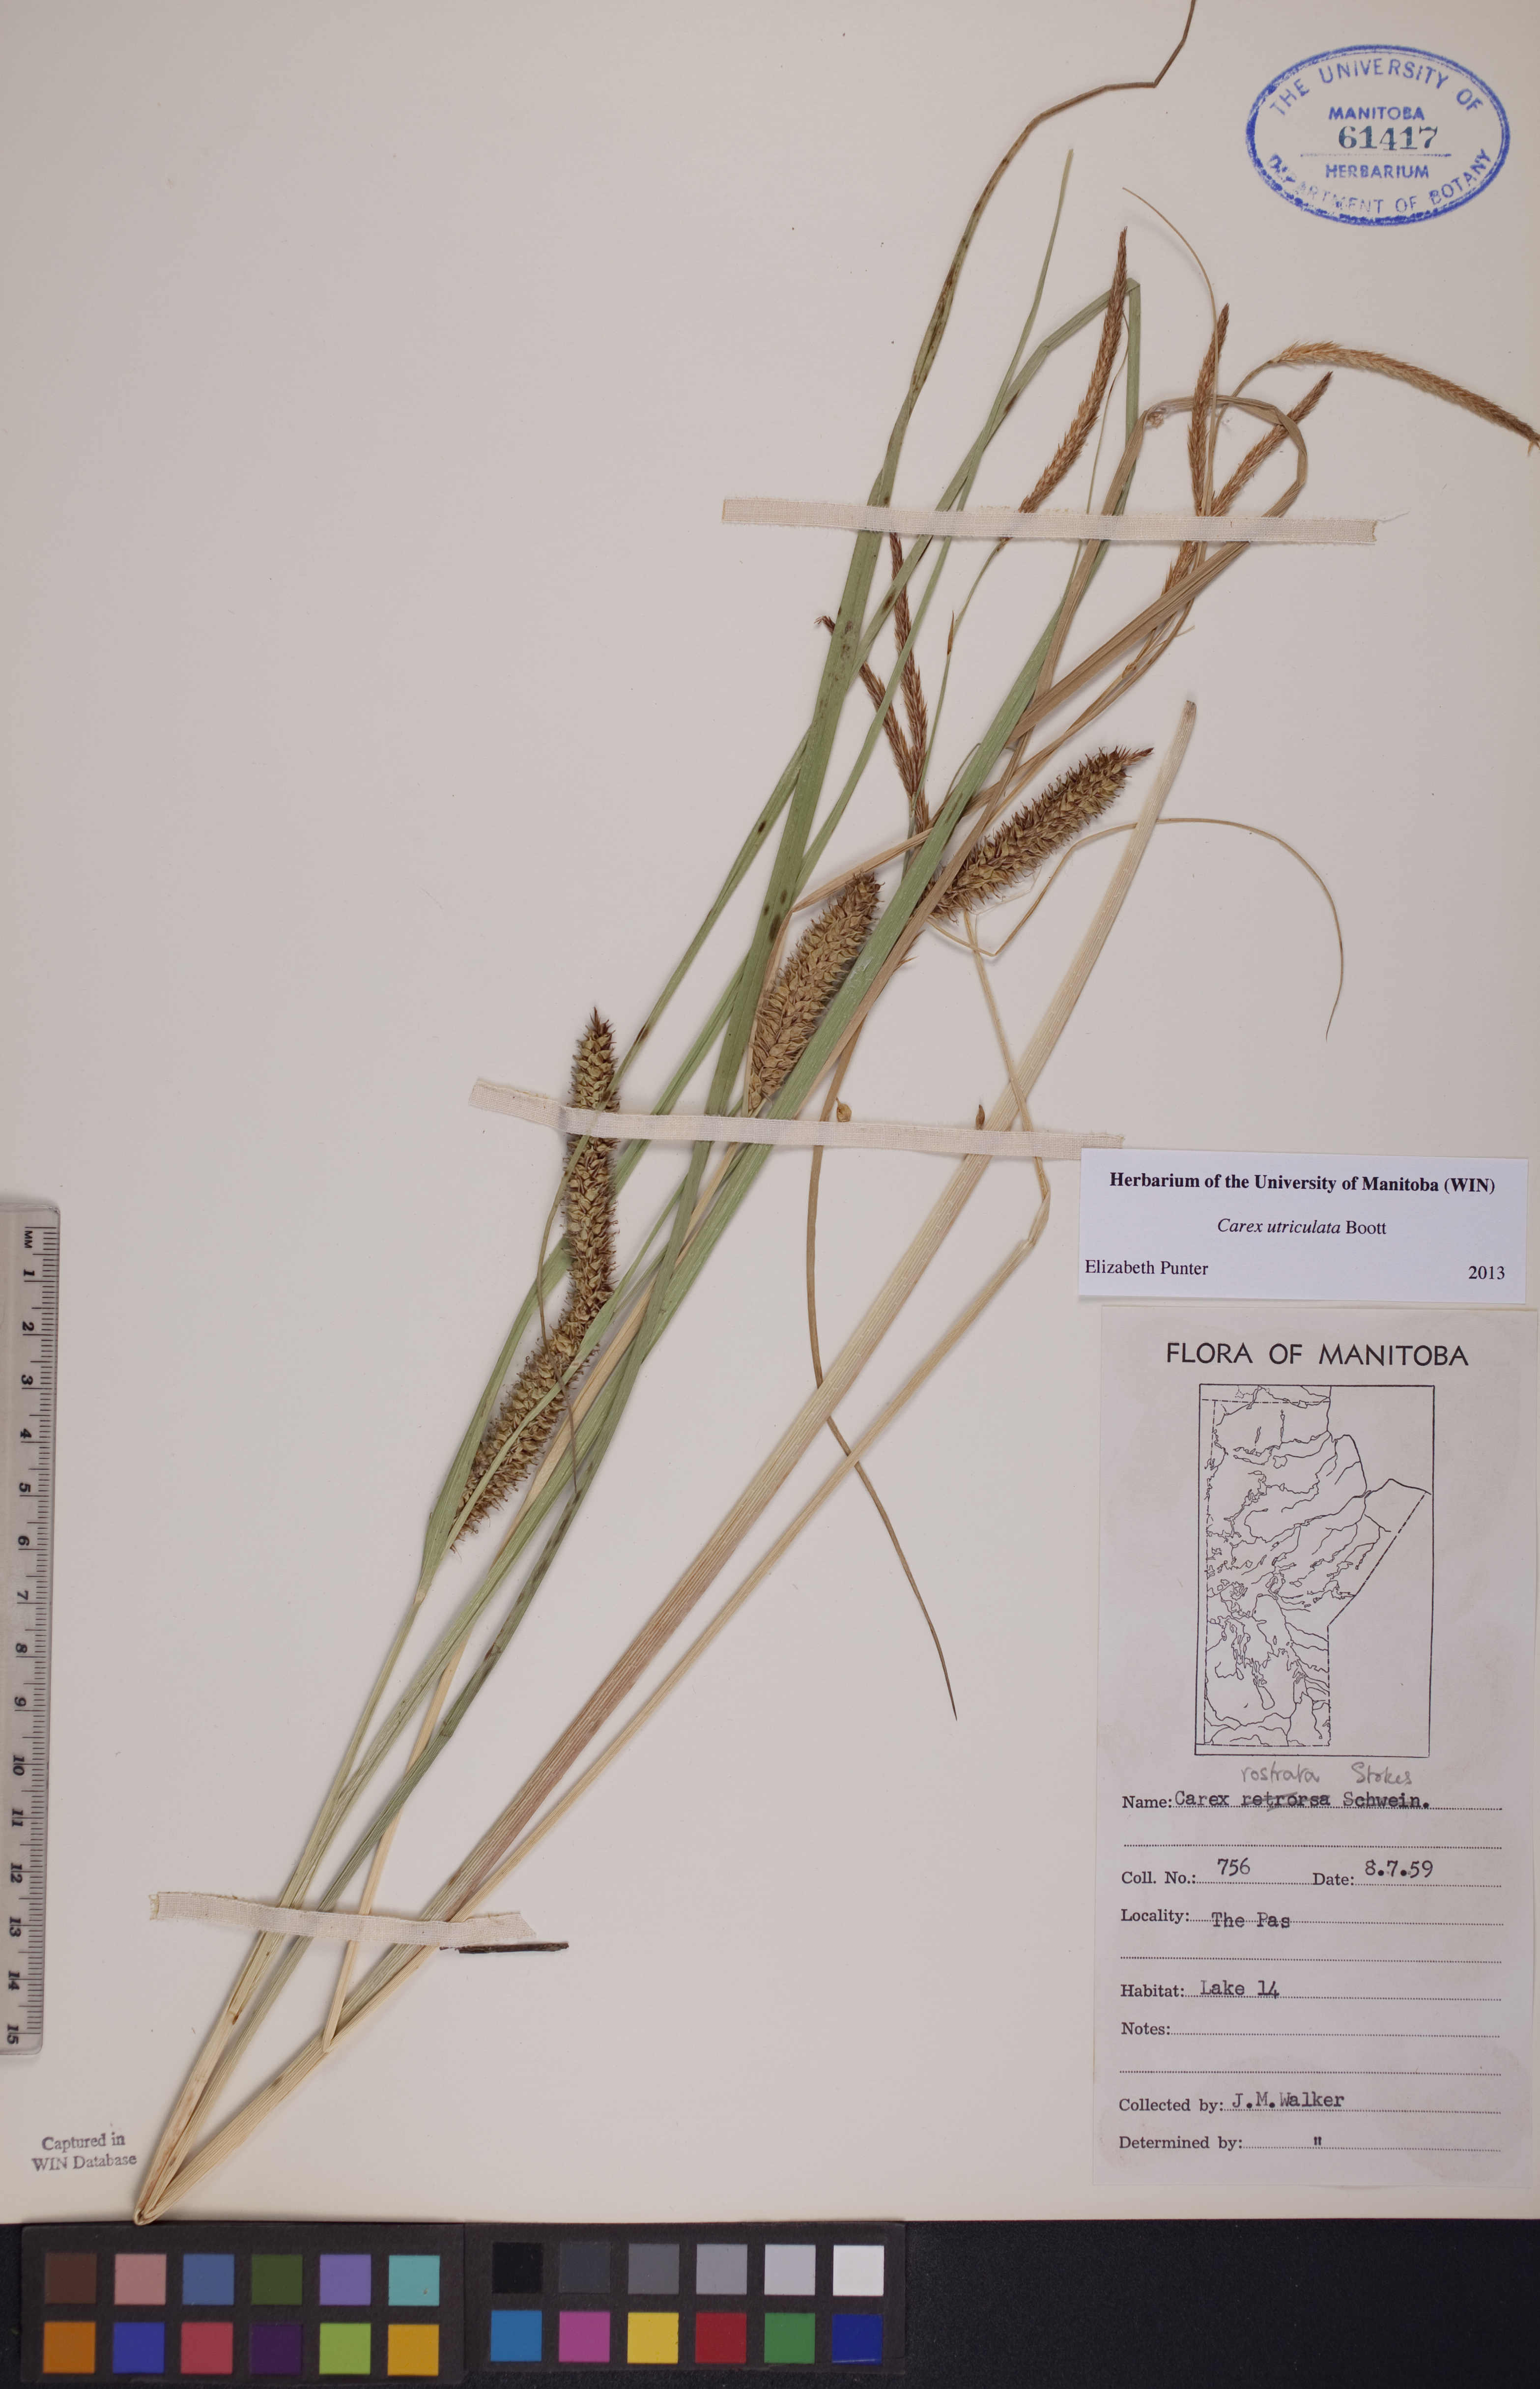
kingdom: Plantae
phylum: Tracheophyta
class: Liliopsida
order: Poales
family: Cyperaceae
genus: Carex
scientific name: Carex utriculata
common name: Beaked sedge
